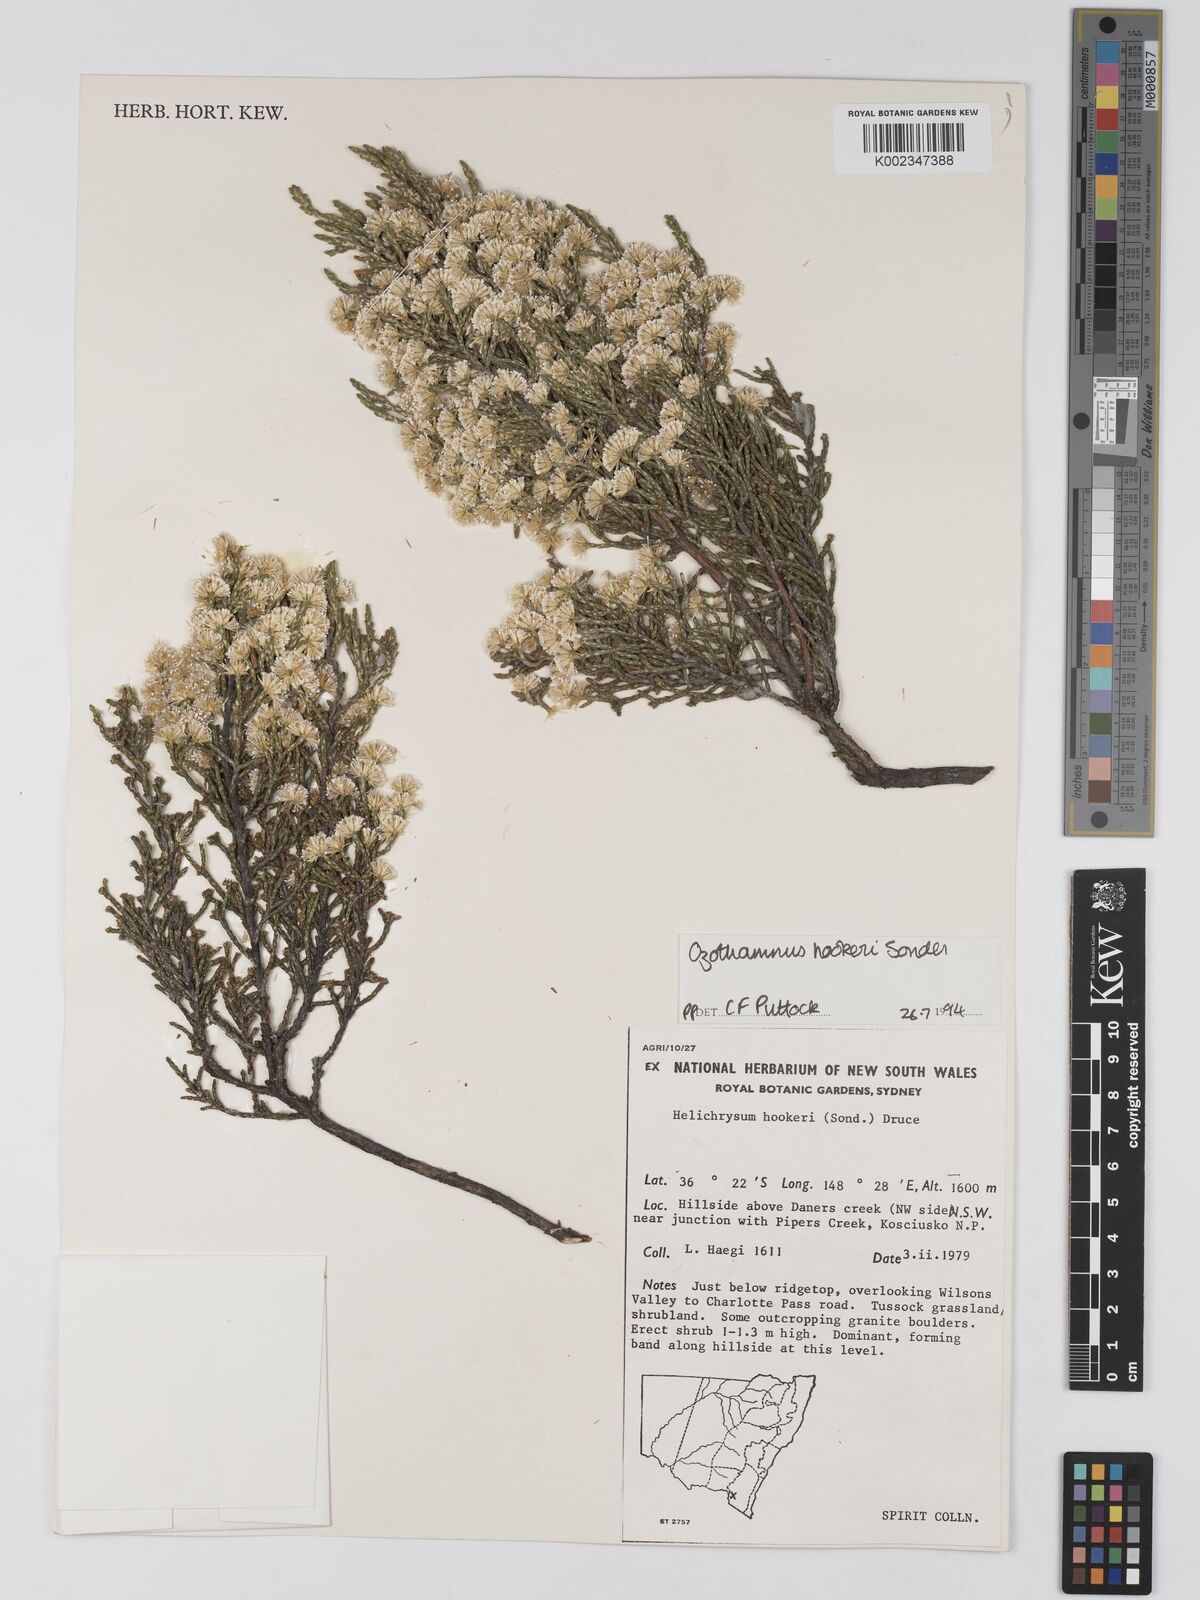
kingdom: Plantae
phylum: Tracheophyta
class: Magnoliopsida
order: Asterales
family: Asteraceae
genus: Ozothamnus
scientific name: Ozothamnus
